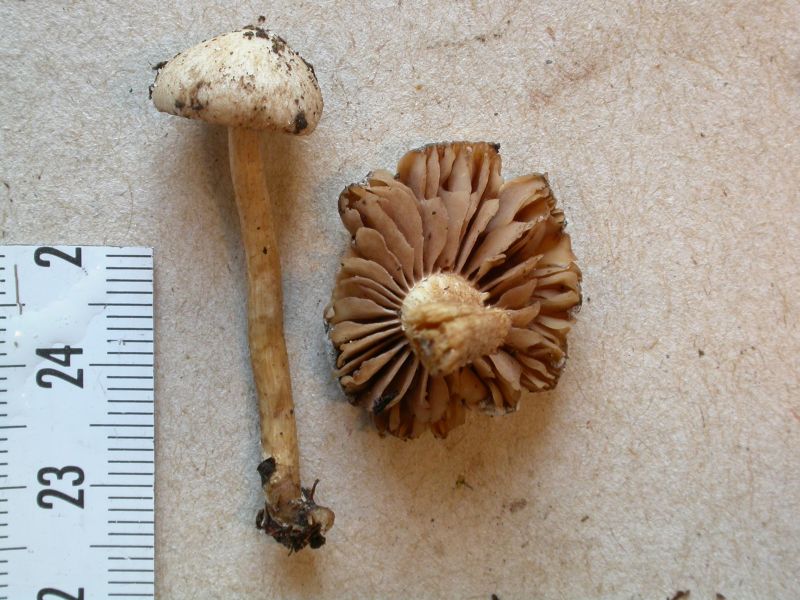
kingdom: Fungi
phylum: Basidiomycota
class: Agaricomycetes
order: Agaricales
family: Hymenogastraceae
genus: Hebeloma
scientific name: Hebeloma fusisporum
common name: kandis-tåreblad
